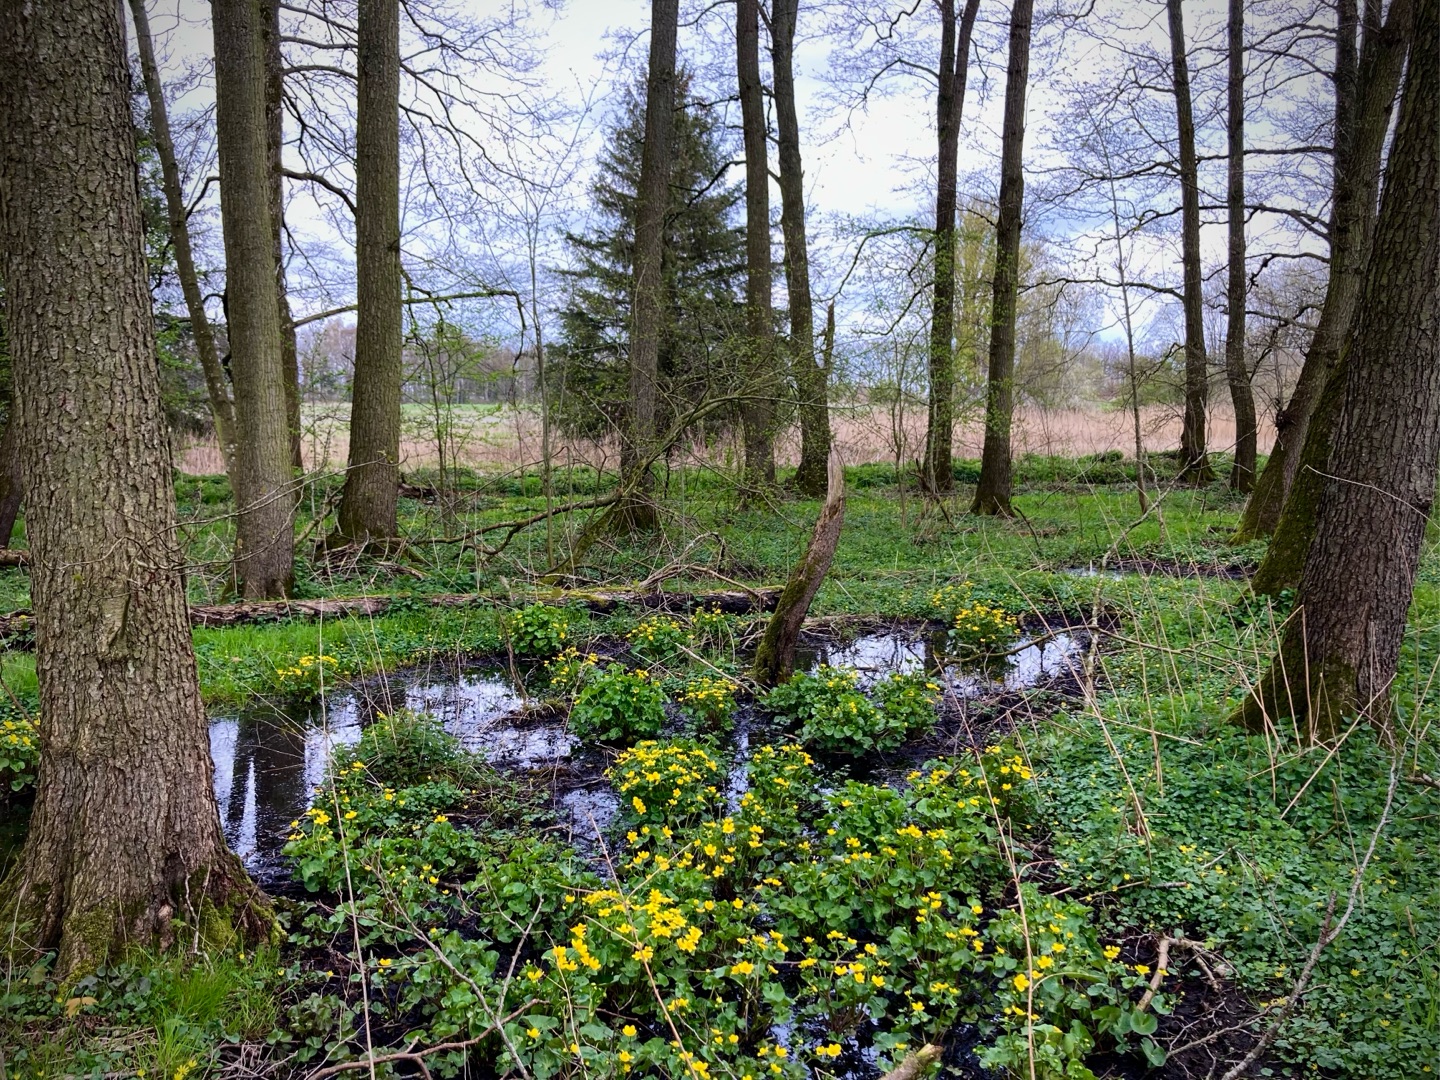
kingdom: Plantae
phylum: Tracheophyta
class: Magnoliopsida
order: Ranunculales
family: Ranunculaceae
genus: Caltha
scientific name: Caltha palustris
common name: Eng-kabbeleje
